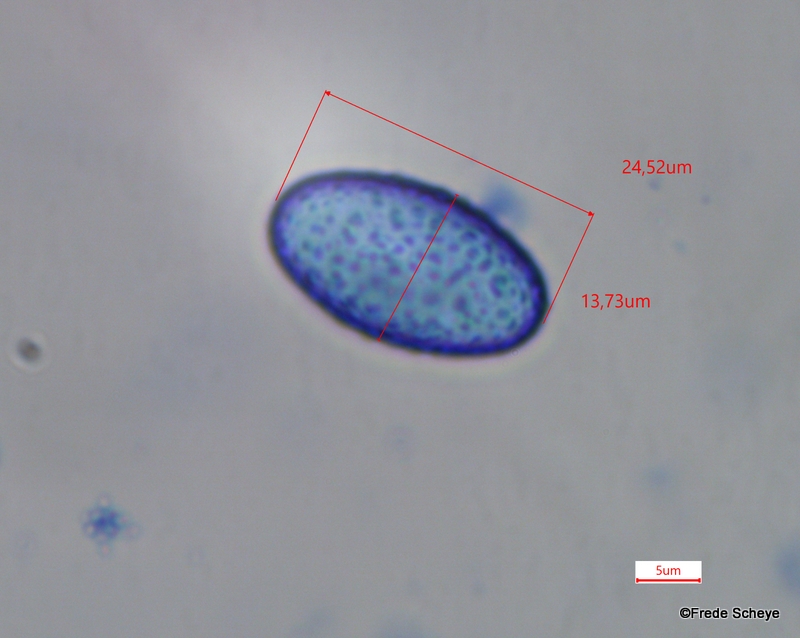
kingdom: Fungi
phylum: Ascomycota
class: Pezizomycetes
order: Pezizales
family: Pyronemataceae
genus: Scutellinia
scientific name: Scutellinia hirta
